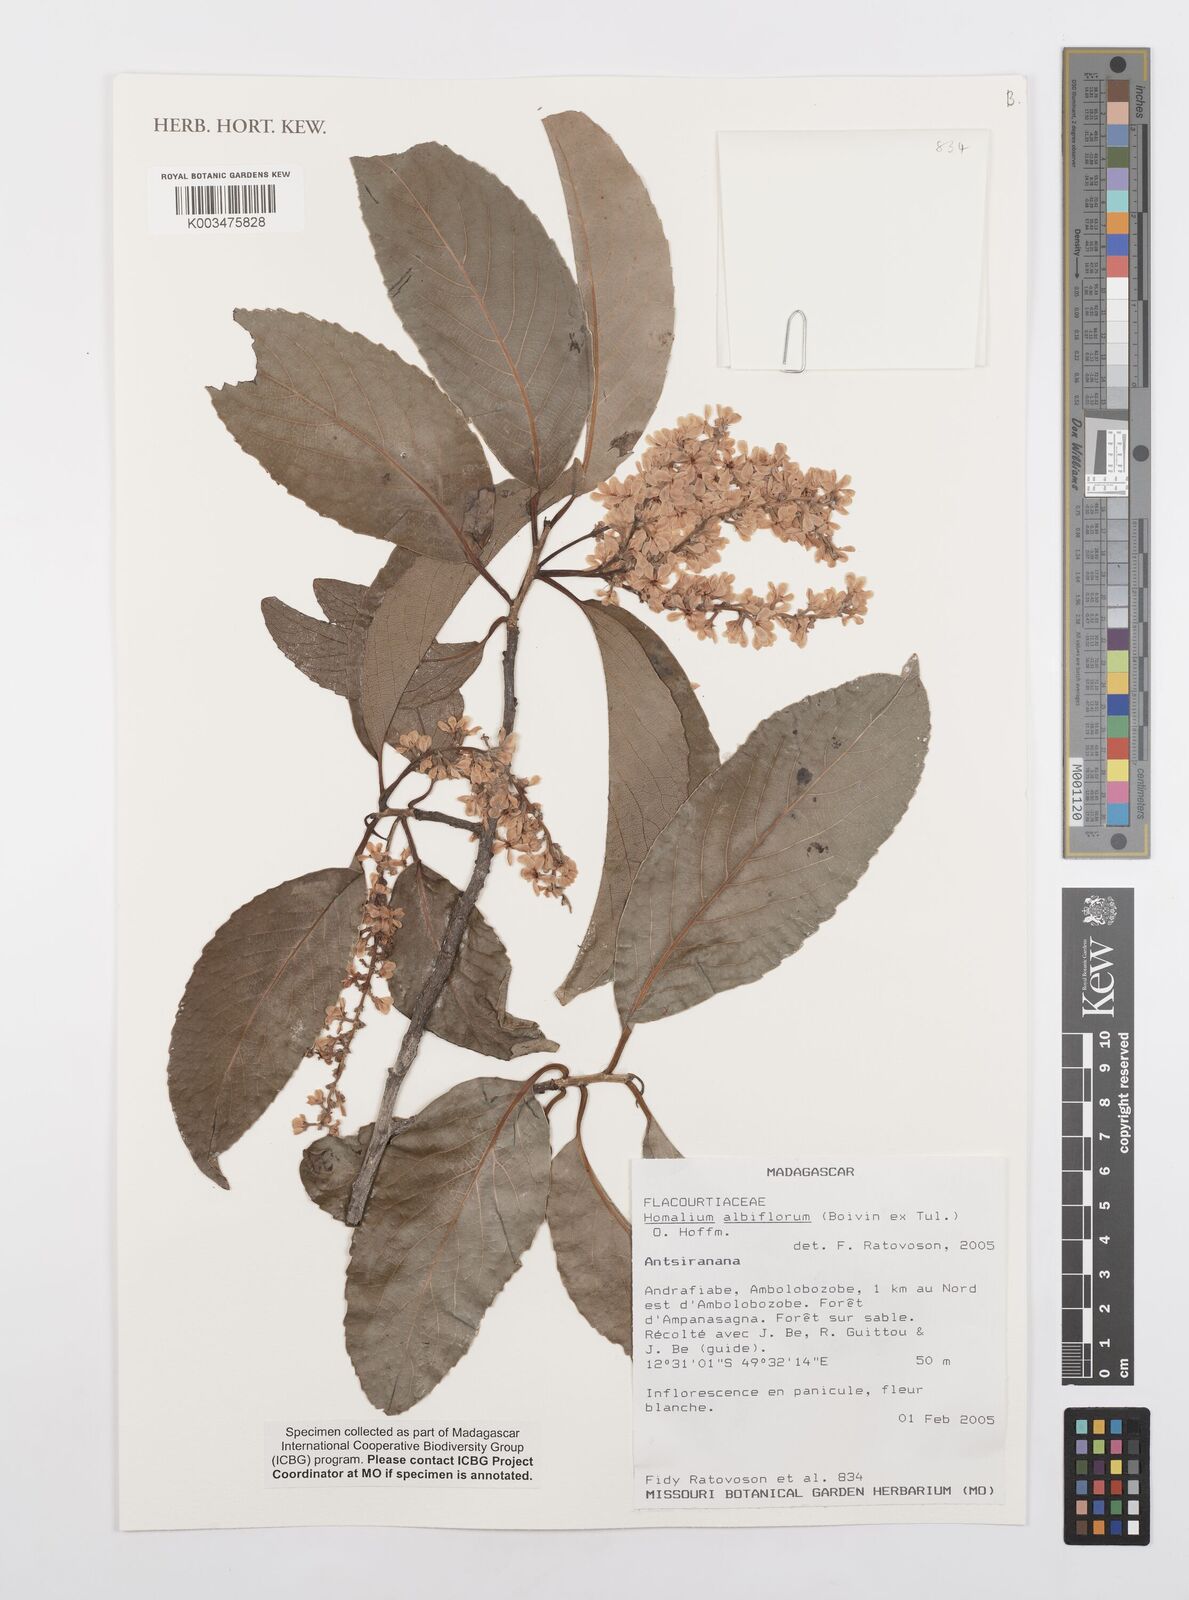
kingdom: Plantae
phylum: Tracheophyta
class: Magnoliopsida
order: Malpighiales
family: Salicaceae
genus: Homalium
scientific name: Homalium albiflorum
